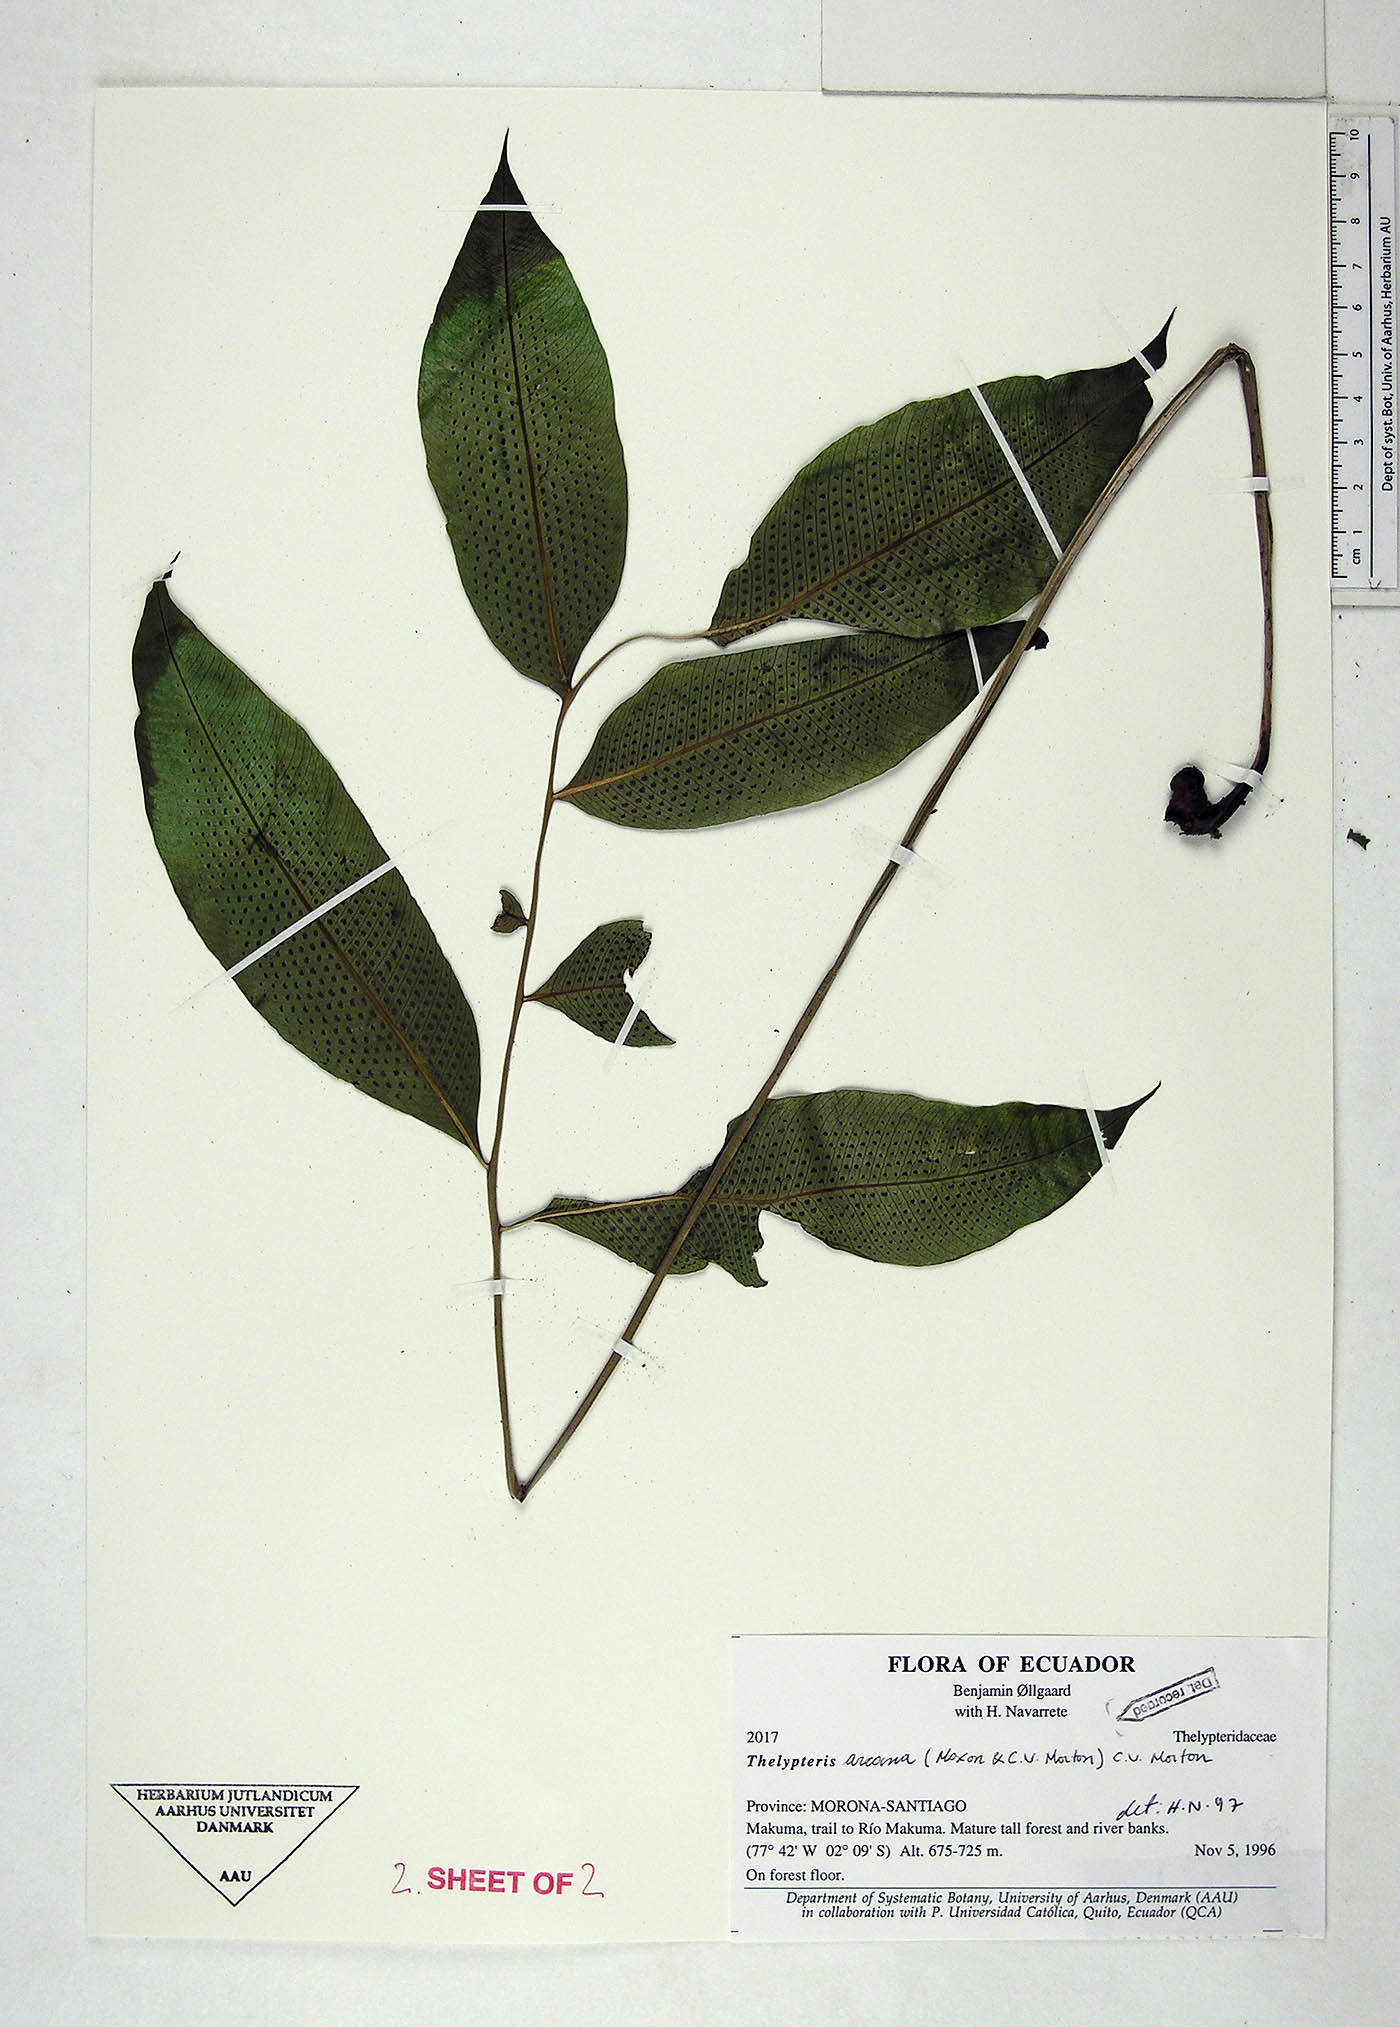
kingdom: Plantae
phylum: Tracheophyta
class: Polypodiopsida
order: Polypodiales
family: Thelypteridaceae
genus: Meniscium
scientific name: Meniscium arcanum
